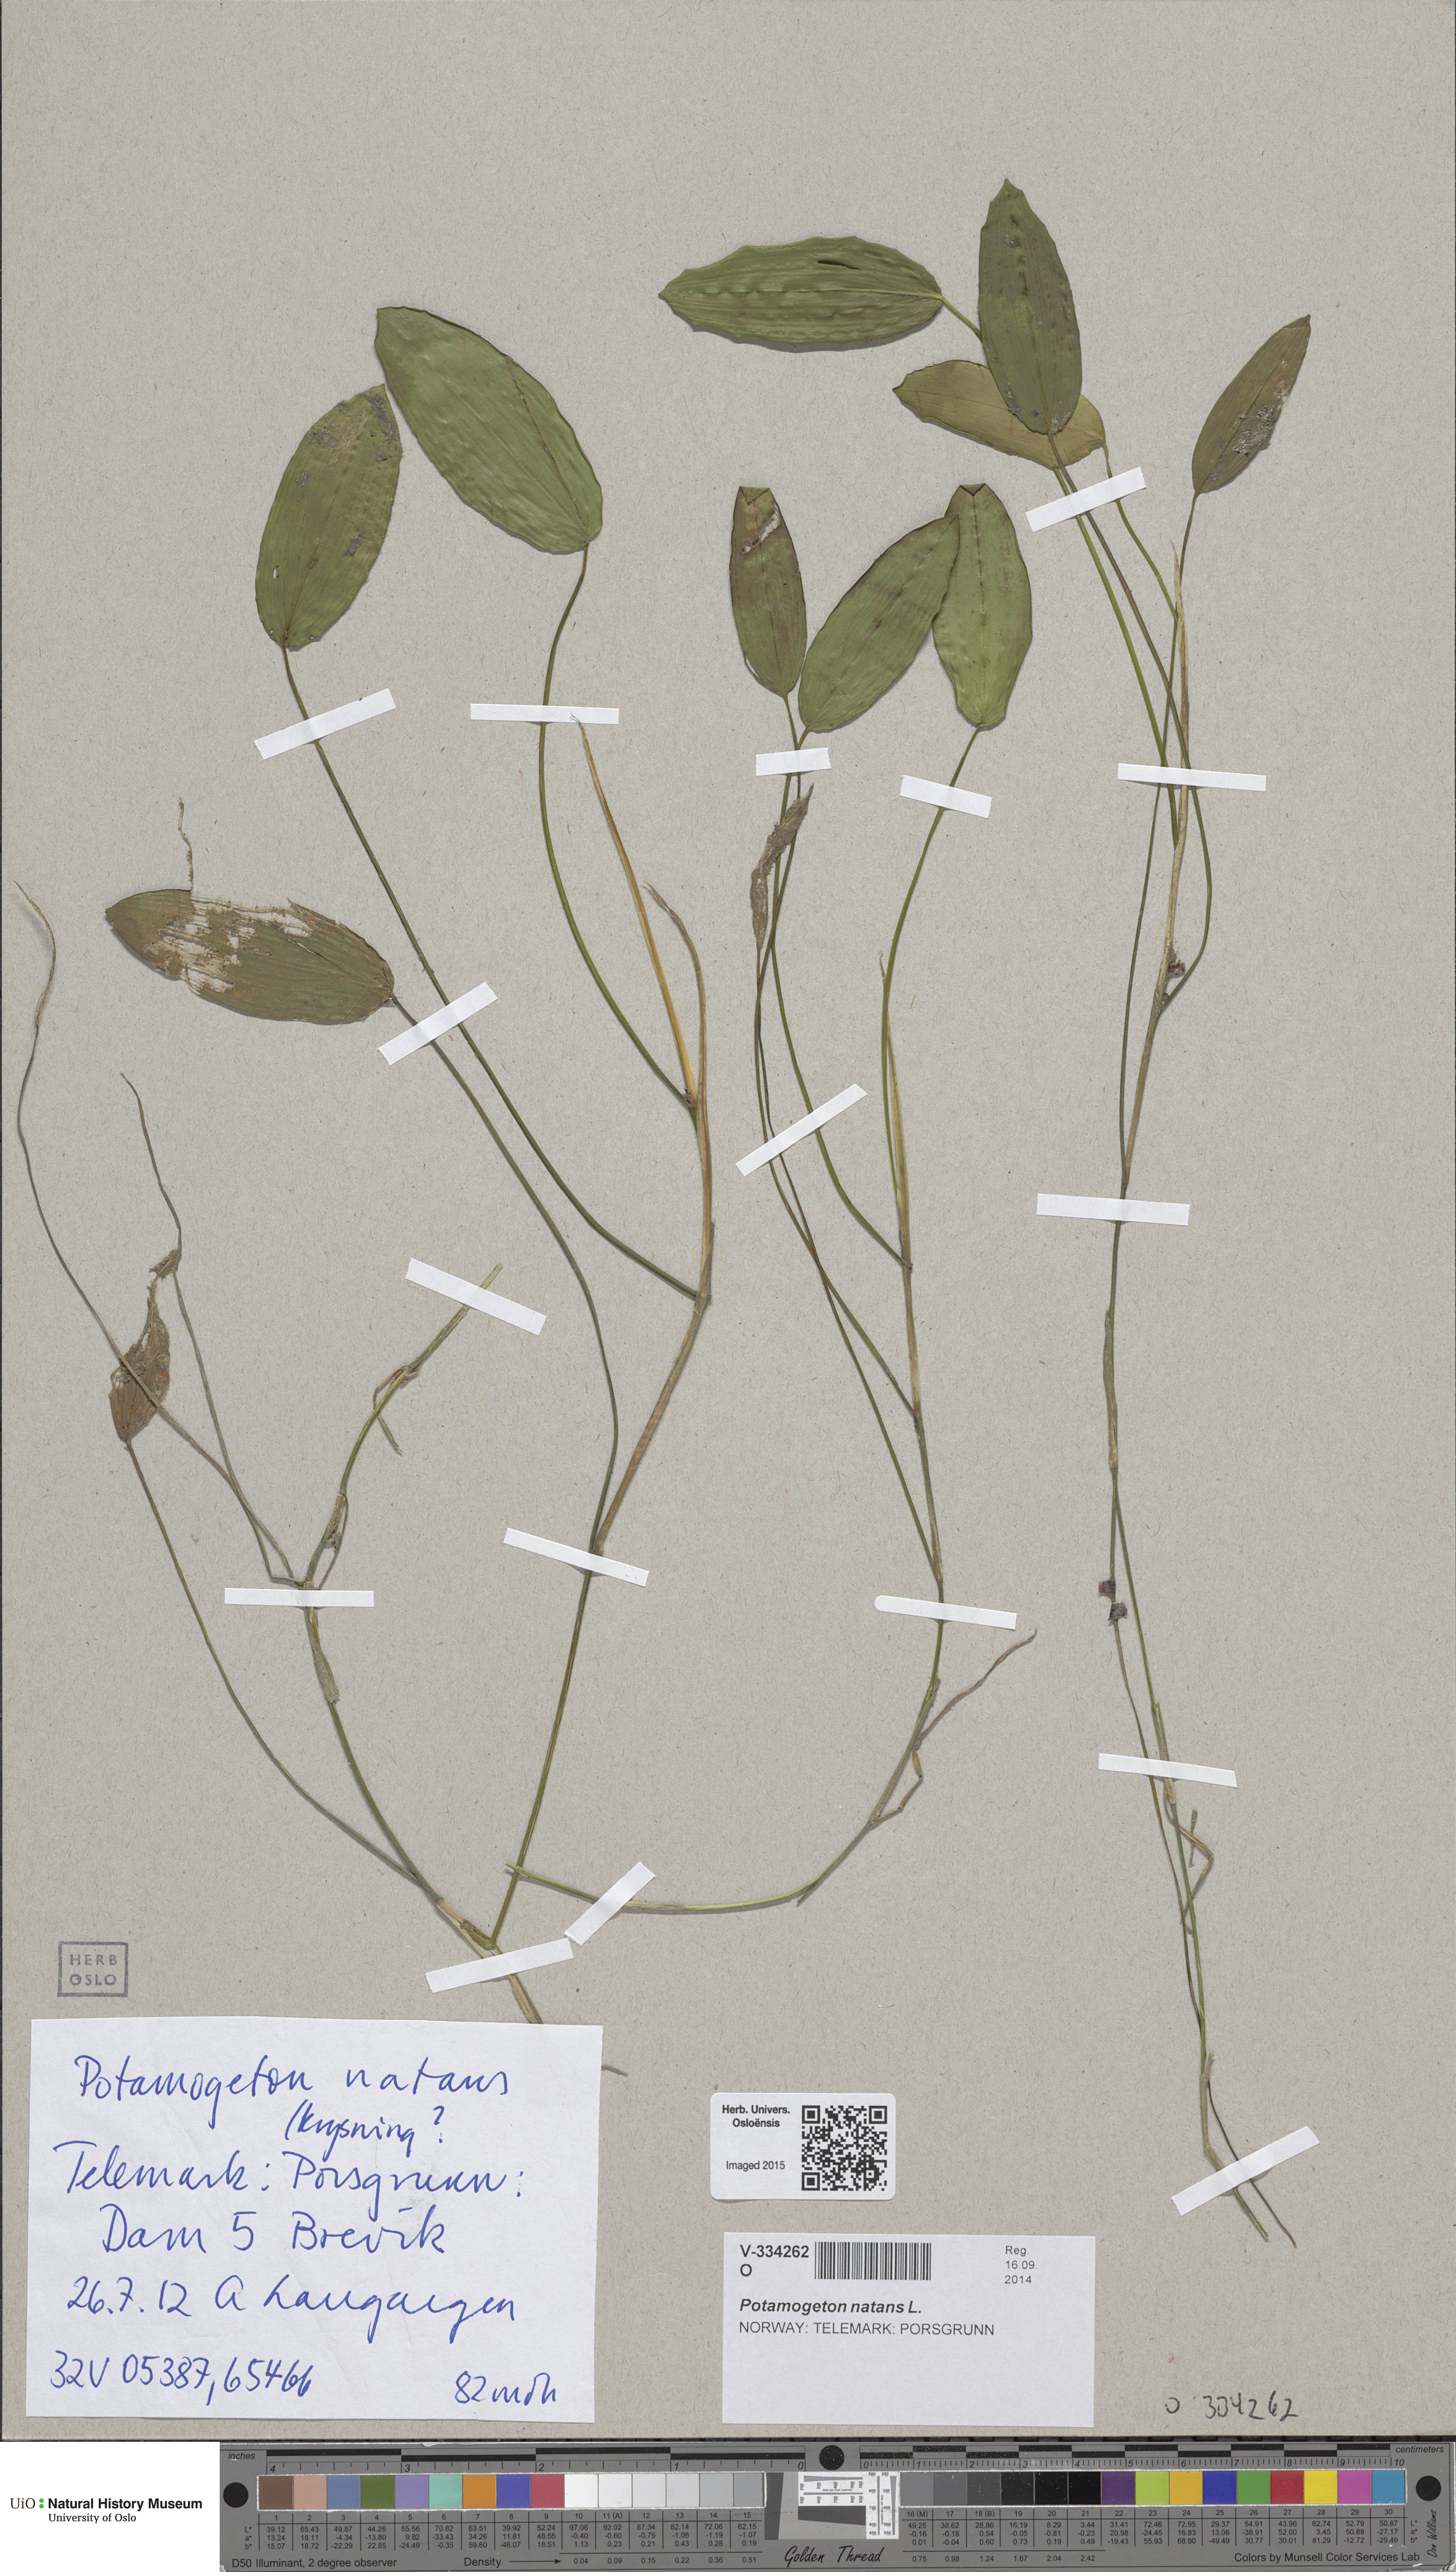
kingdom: Plantae
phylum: Tracheophyta
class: Liliopsida
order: Alismatales
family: Potamogetonaceae
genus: Potamogeton
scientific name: Potamogeton natans
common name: Broad-leaved pondweed
